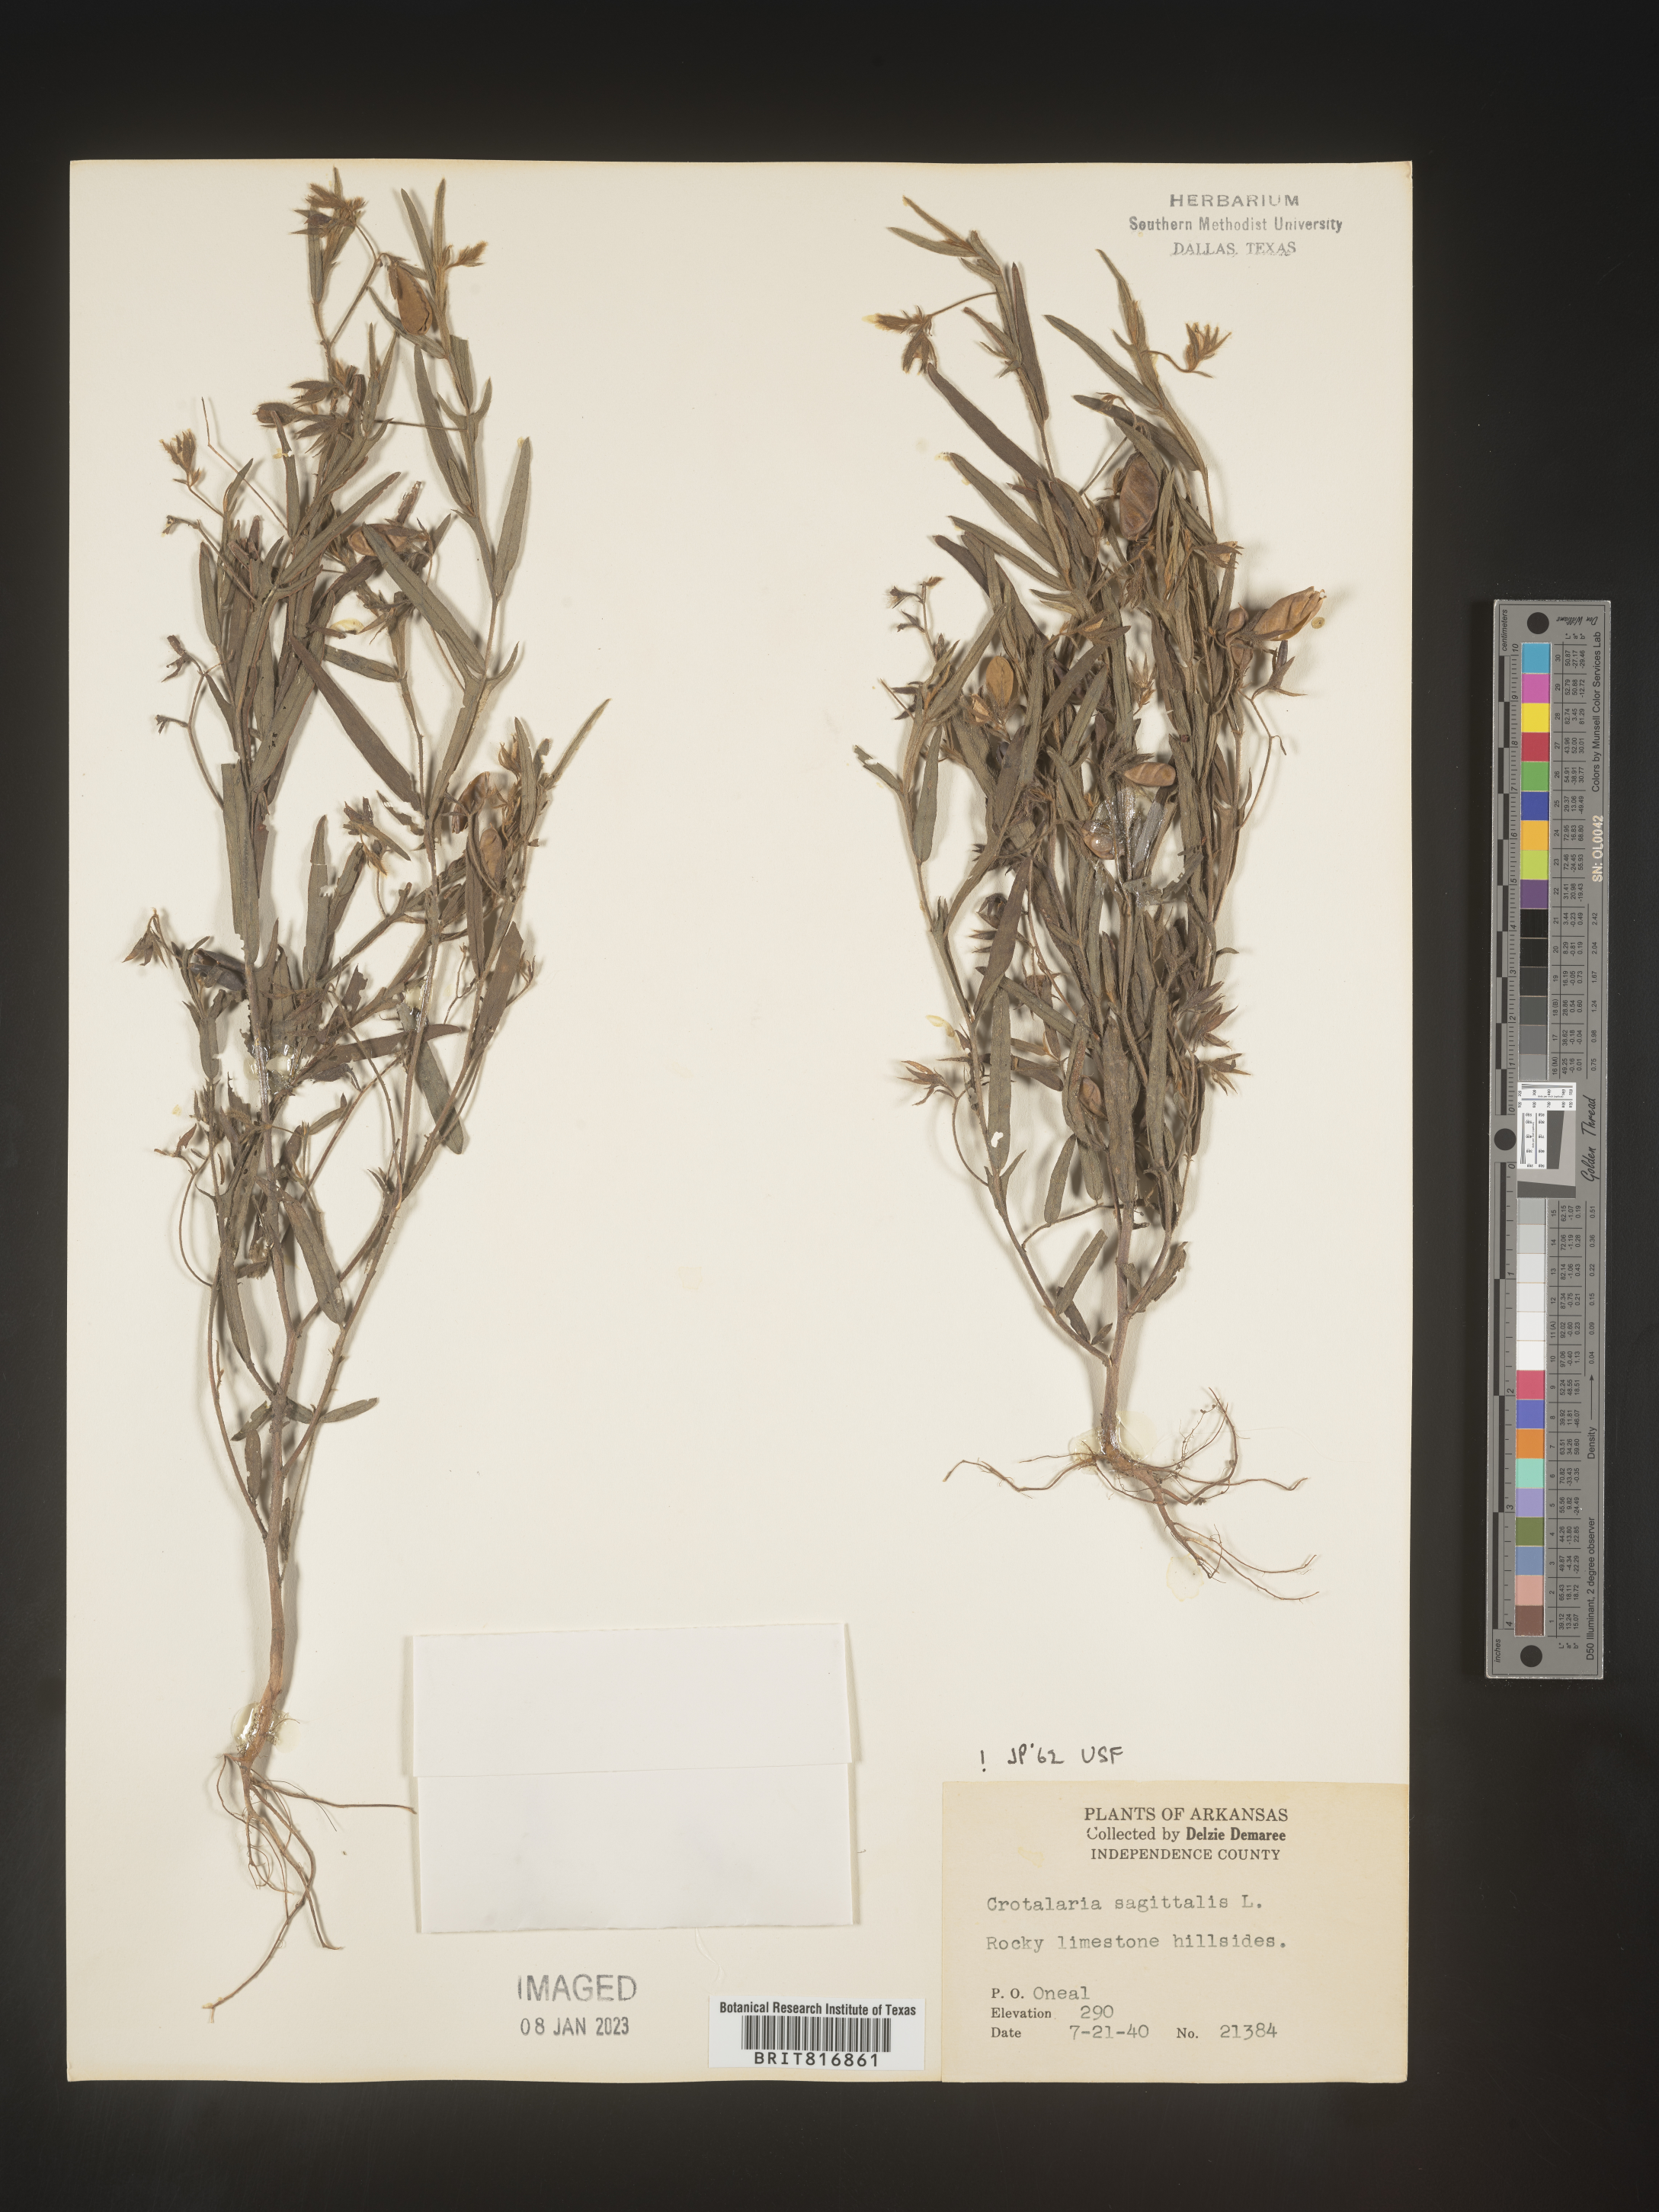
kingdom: Plantae
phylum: Tracheophyta
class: Magnoliopsida
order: Fabales
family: Fabaceae
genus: Crotalaria
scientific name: Crotalaria sagittalis
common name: Arrowhead rattlebox
